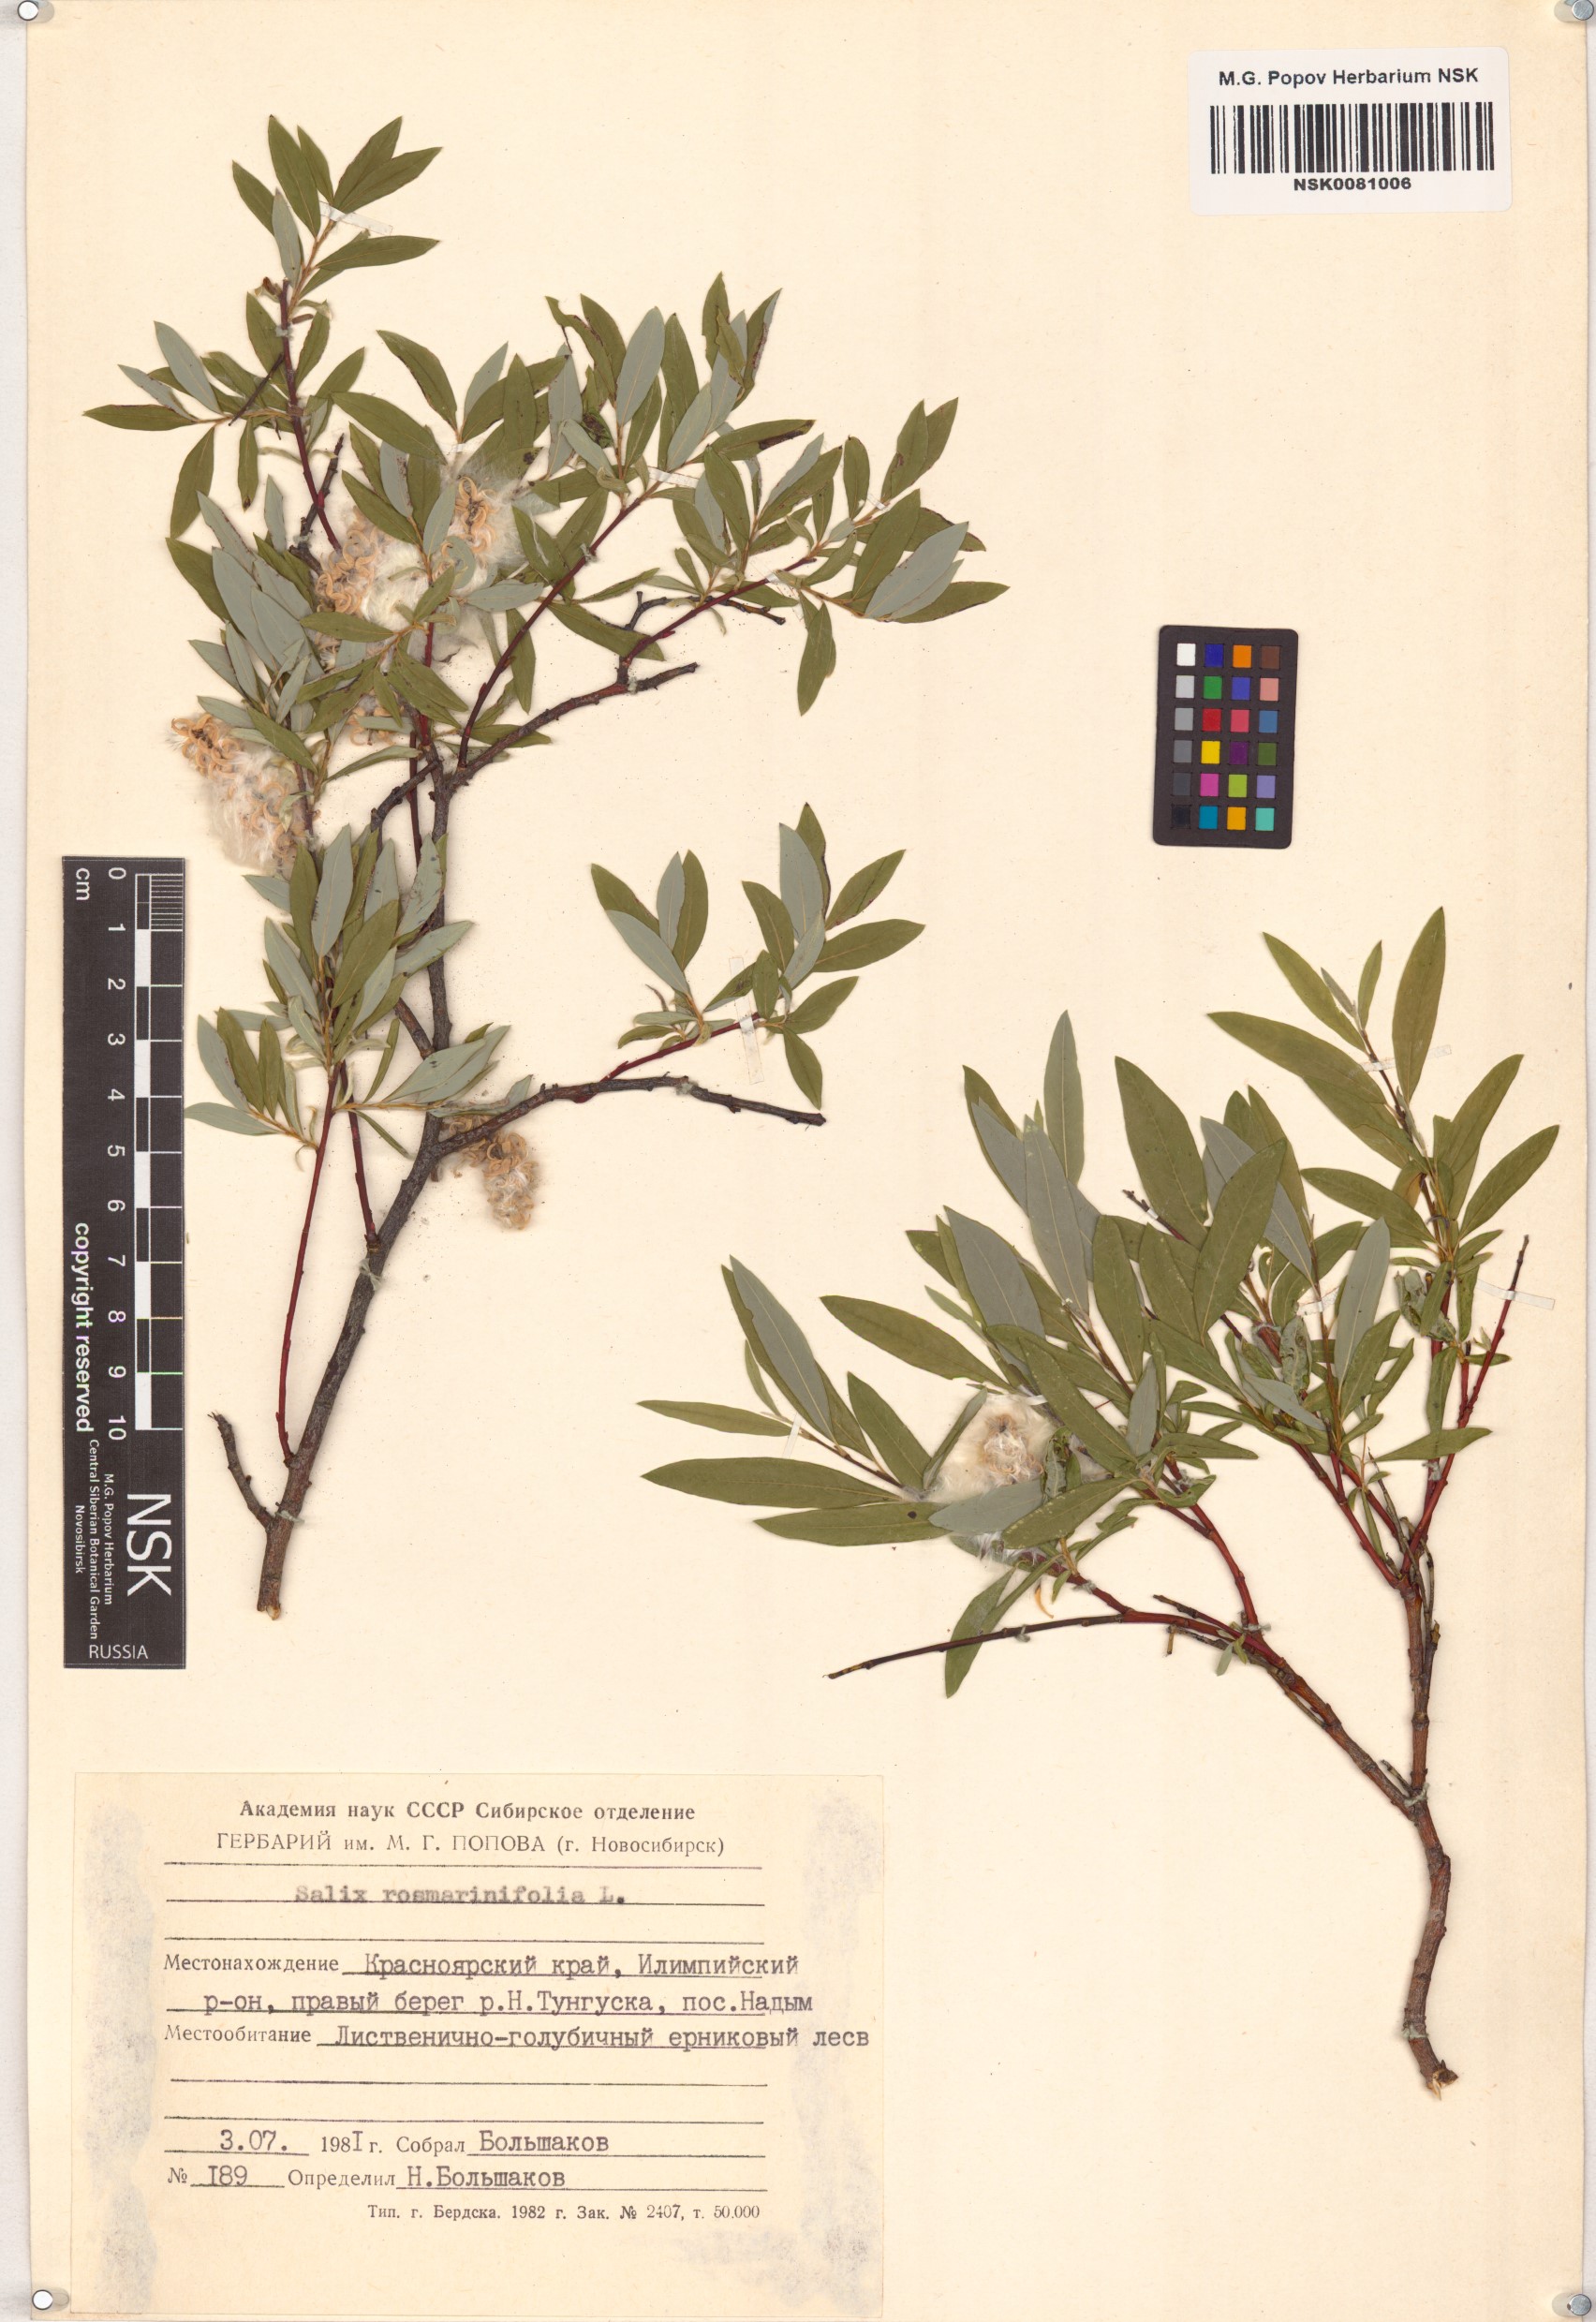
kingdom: Plantae
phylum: Tracheophyta
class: Magnoliopsida
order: Malpighiales
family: Salicaceae
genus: Salix
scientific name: Salix rosmarinifolia
